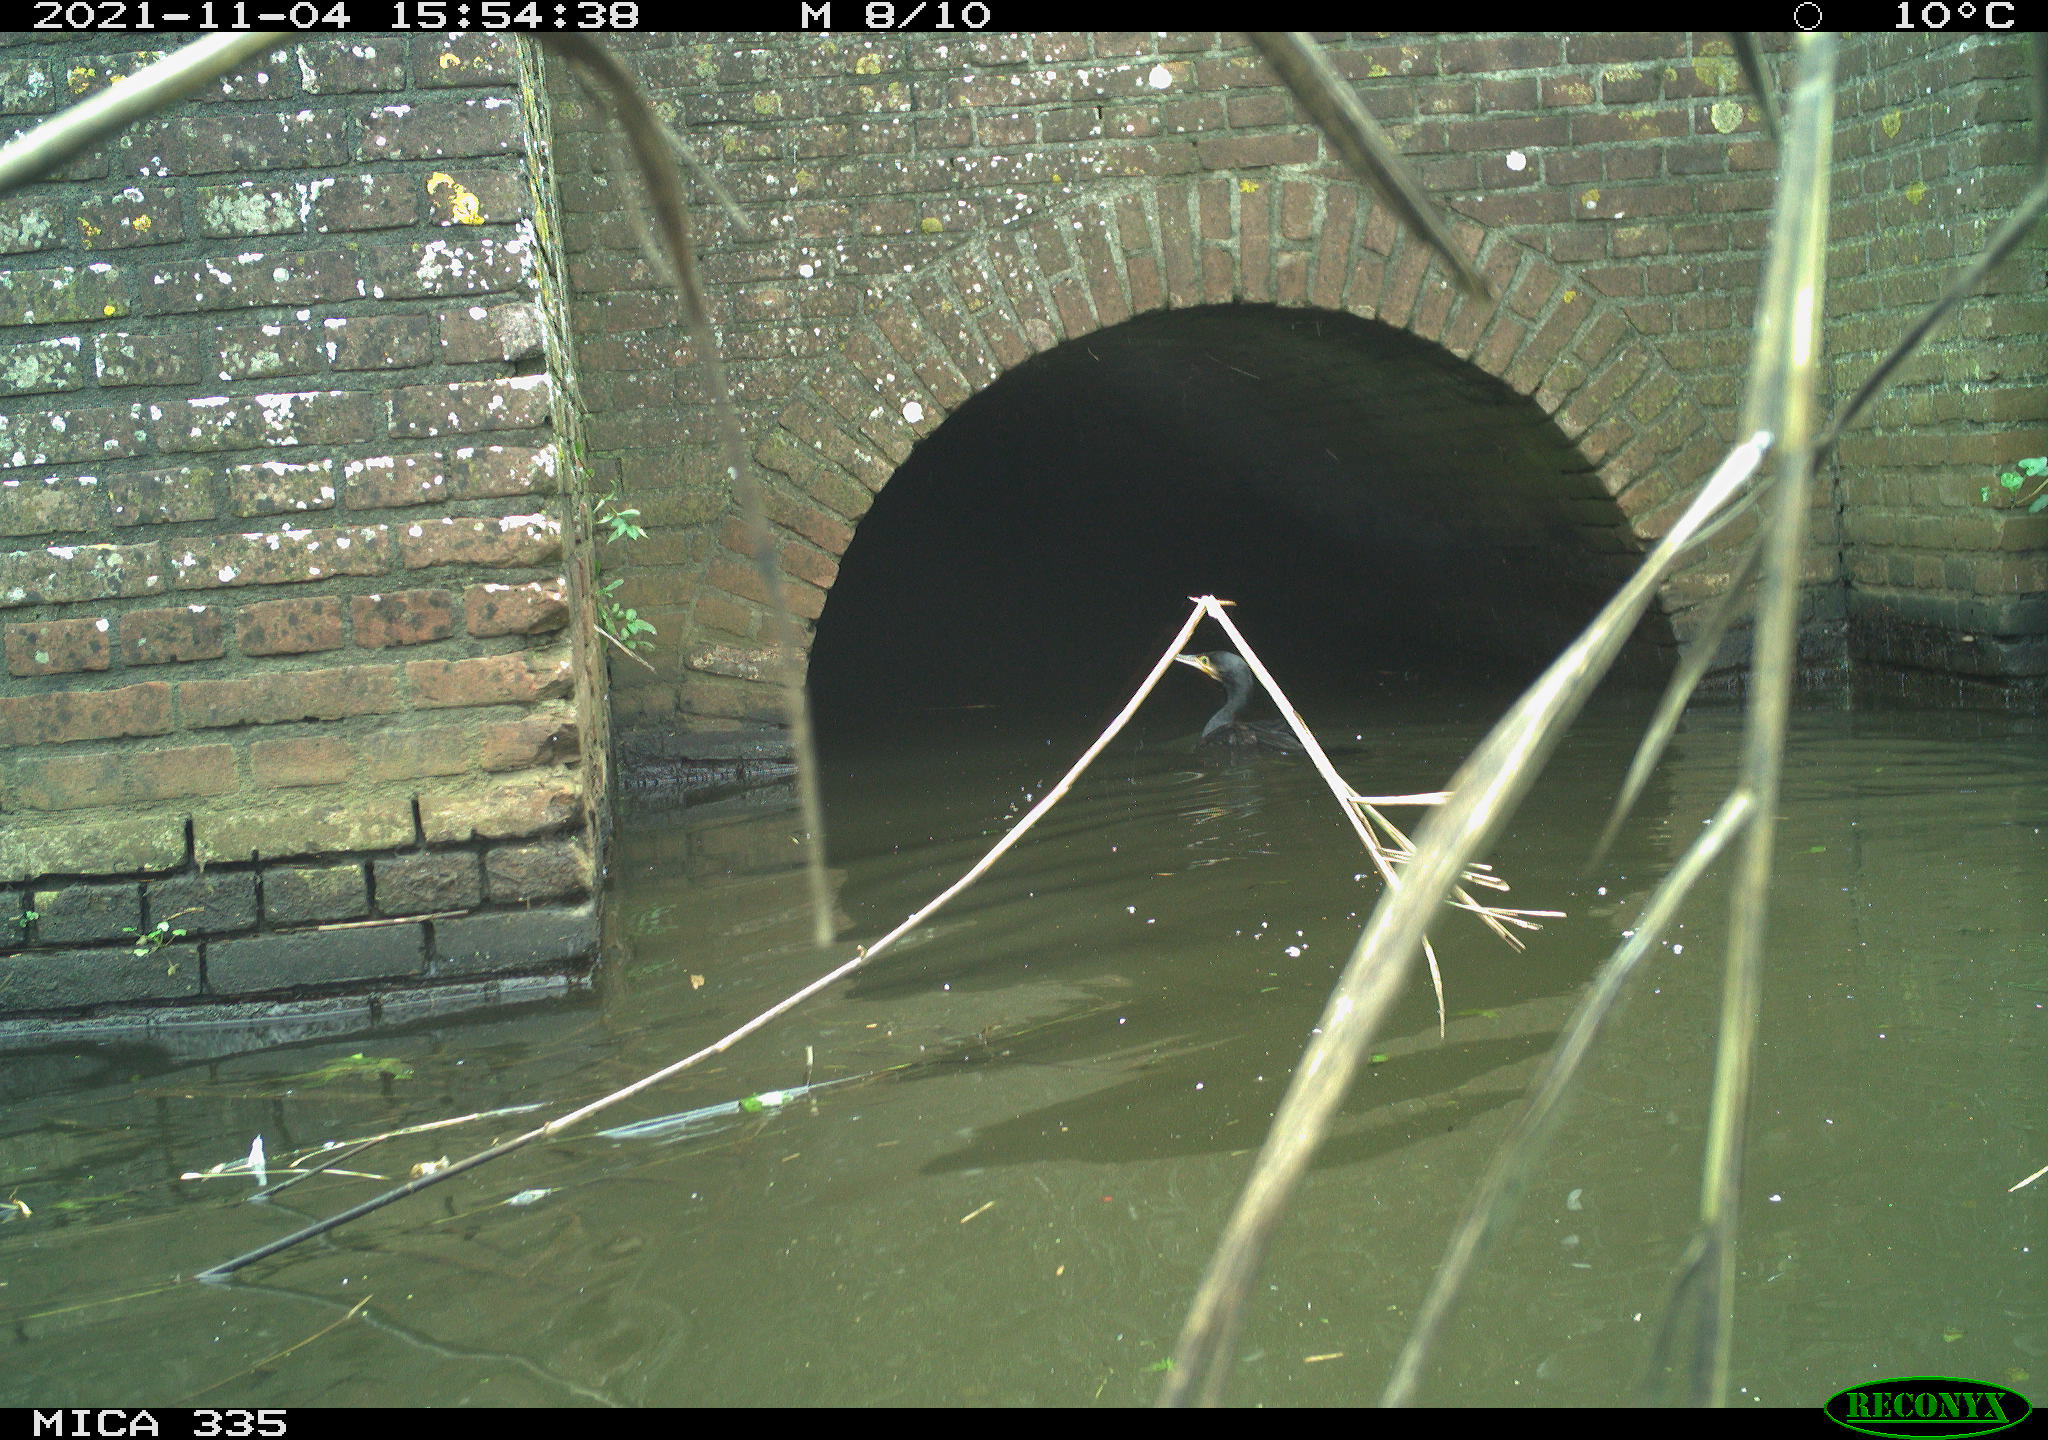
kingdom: Animalia
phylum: Chordata
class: Aves
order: Suliformes
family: Phalacrocoracidae
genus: Phalacrocorax
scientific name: Phalacrocorax carbo
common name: Great cormorant
